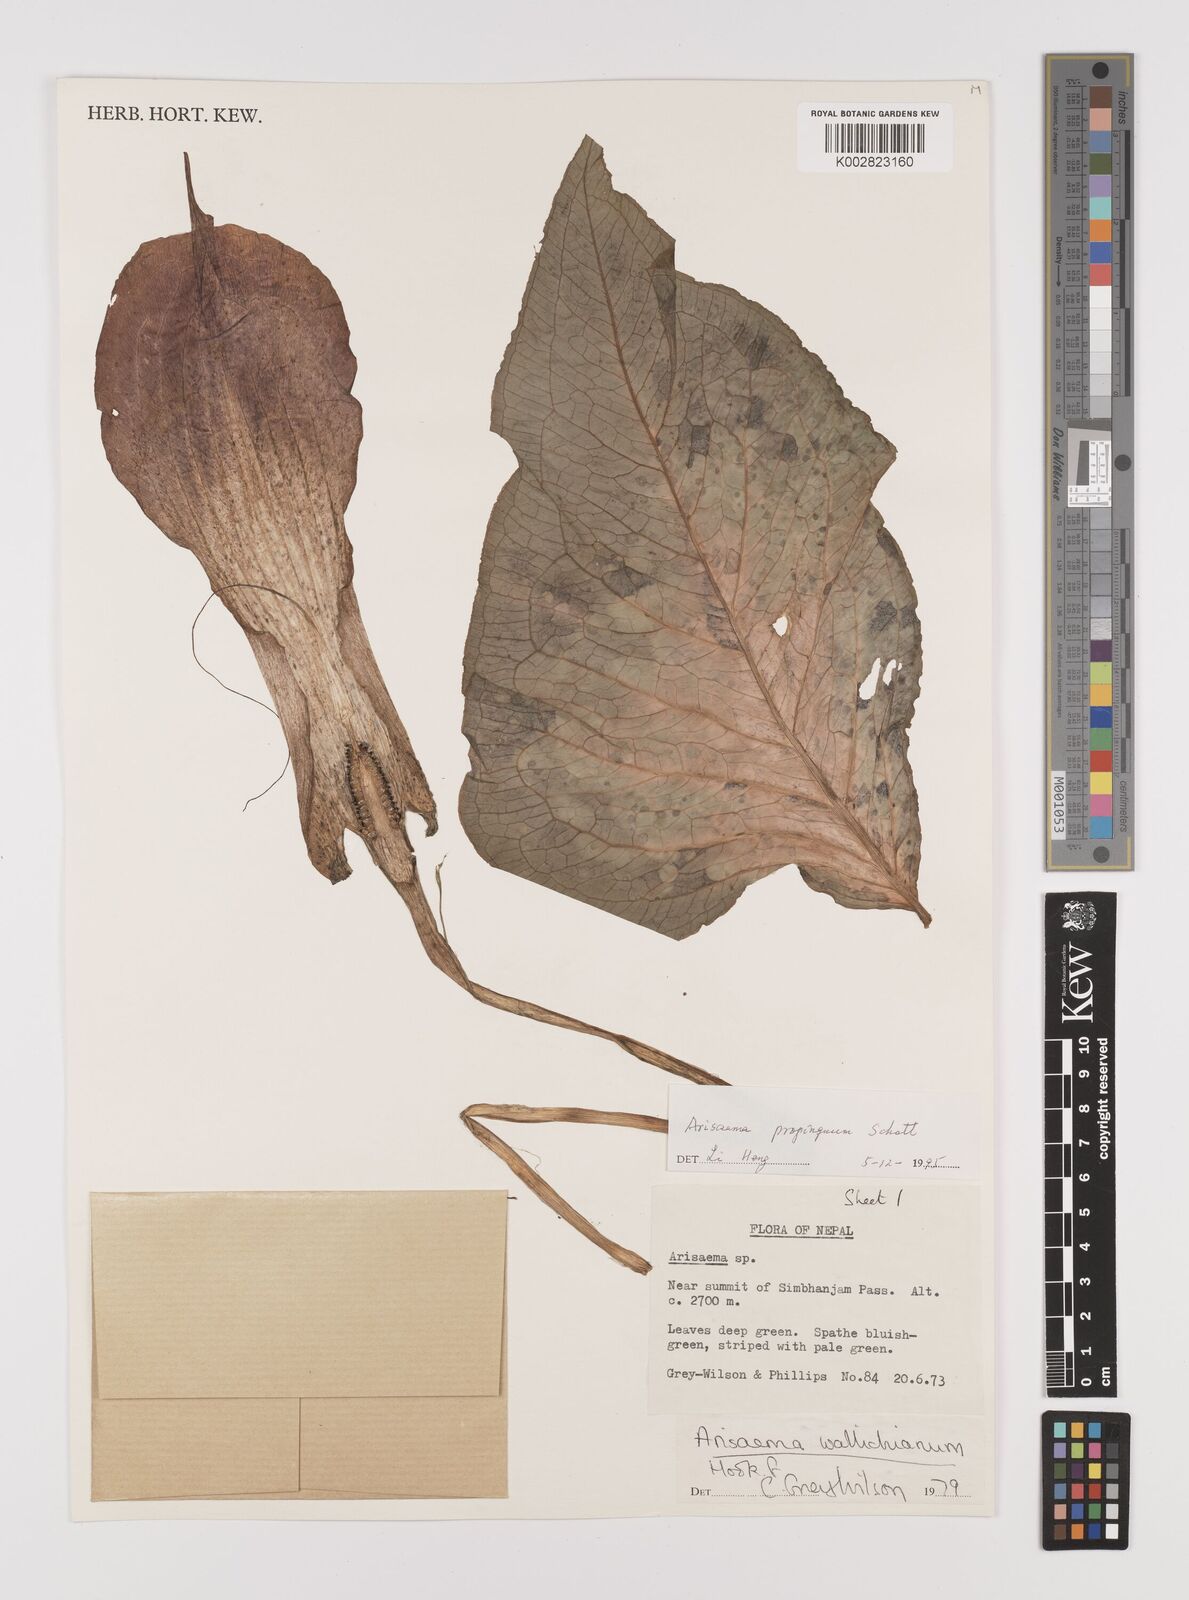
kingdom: Plantae
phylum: Tracheophyta
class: Liliopsida
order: Alismatales
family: Araceae
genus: Arisaema
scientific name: Arisaema propinquum
